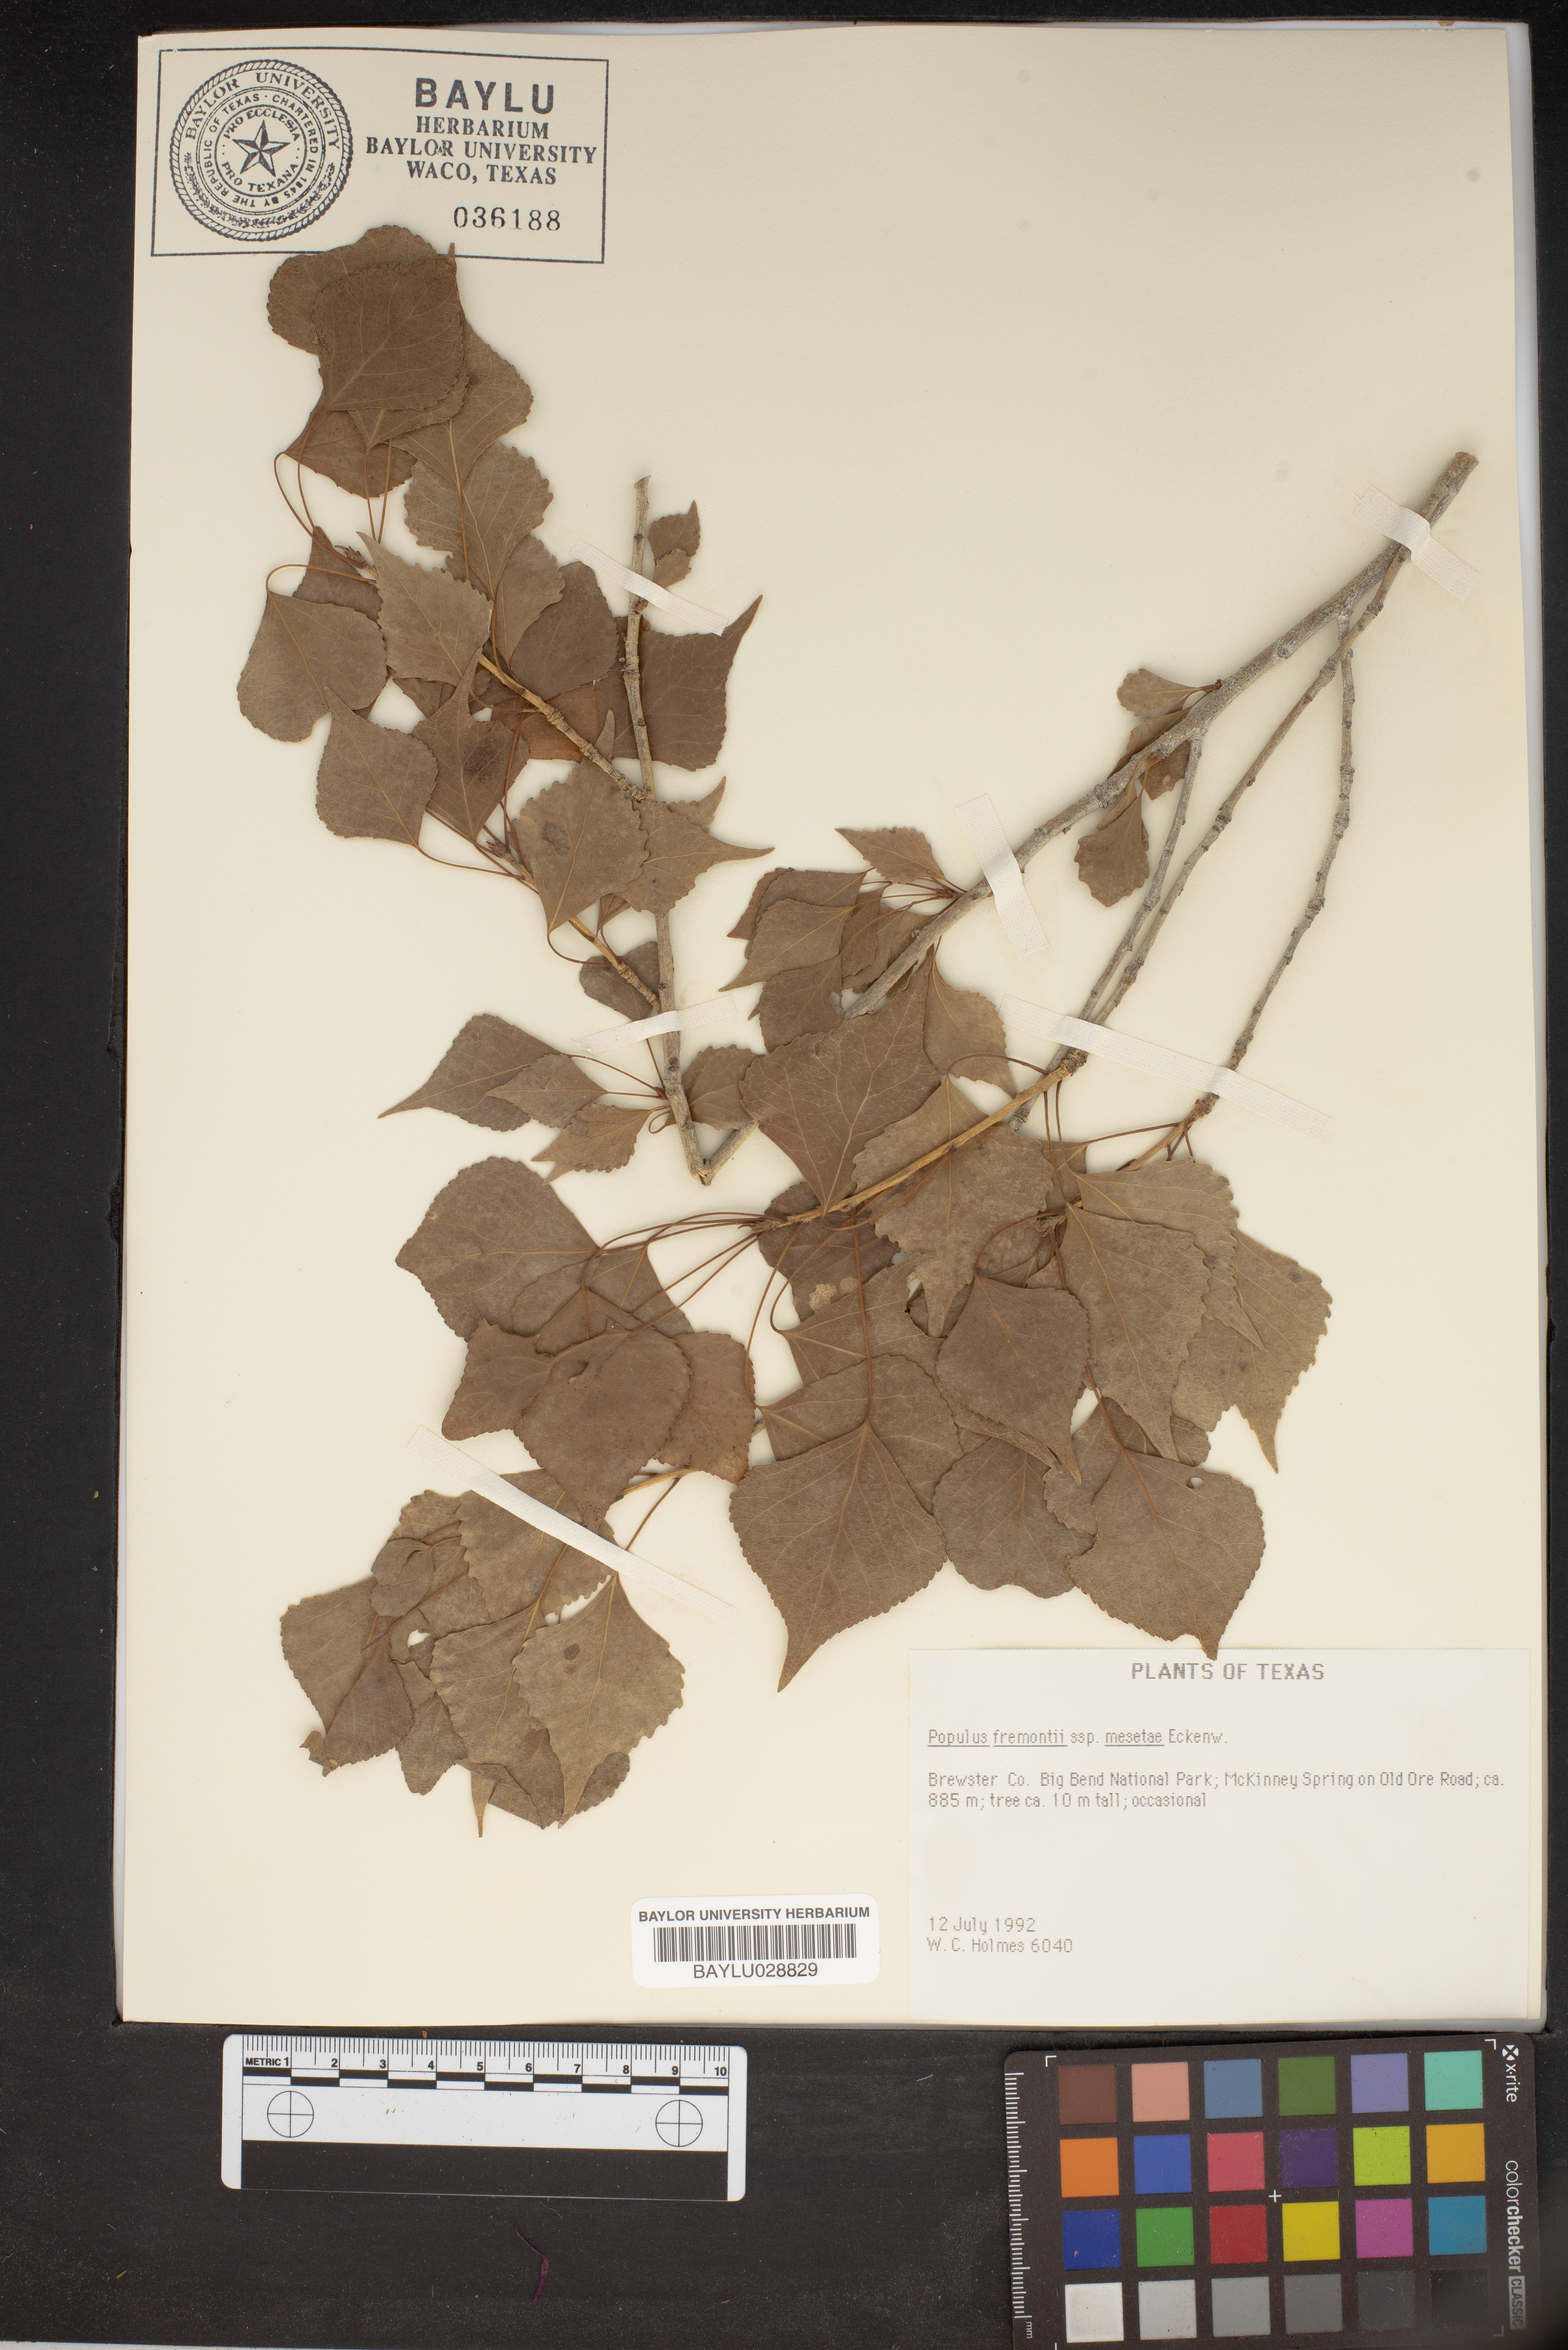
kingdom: Plantae
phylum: Tracheophyta
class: Magnoliopsida
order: Malpighiales
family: Salicaceae
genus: Populus
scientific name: Populus fremontii
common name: Fremont's cottonwood
